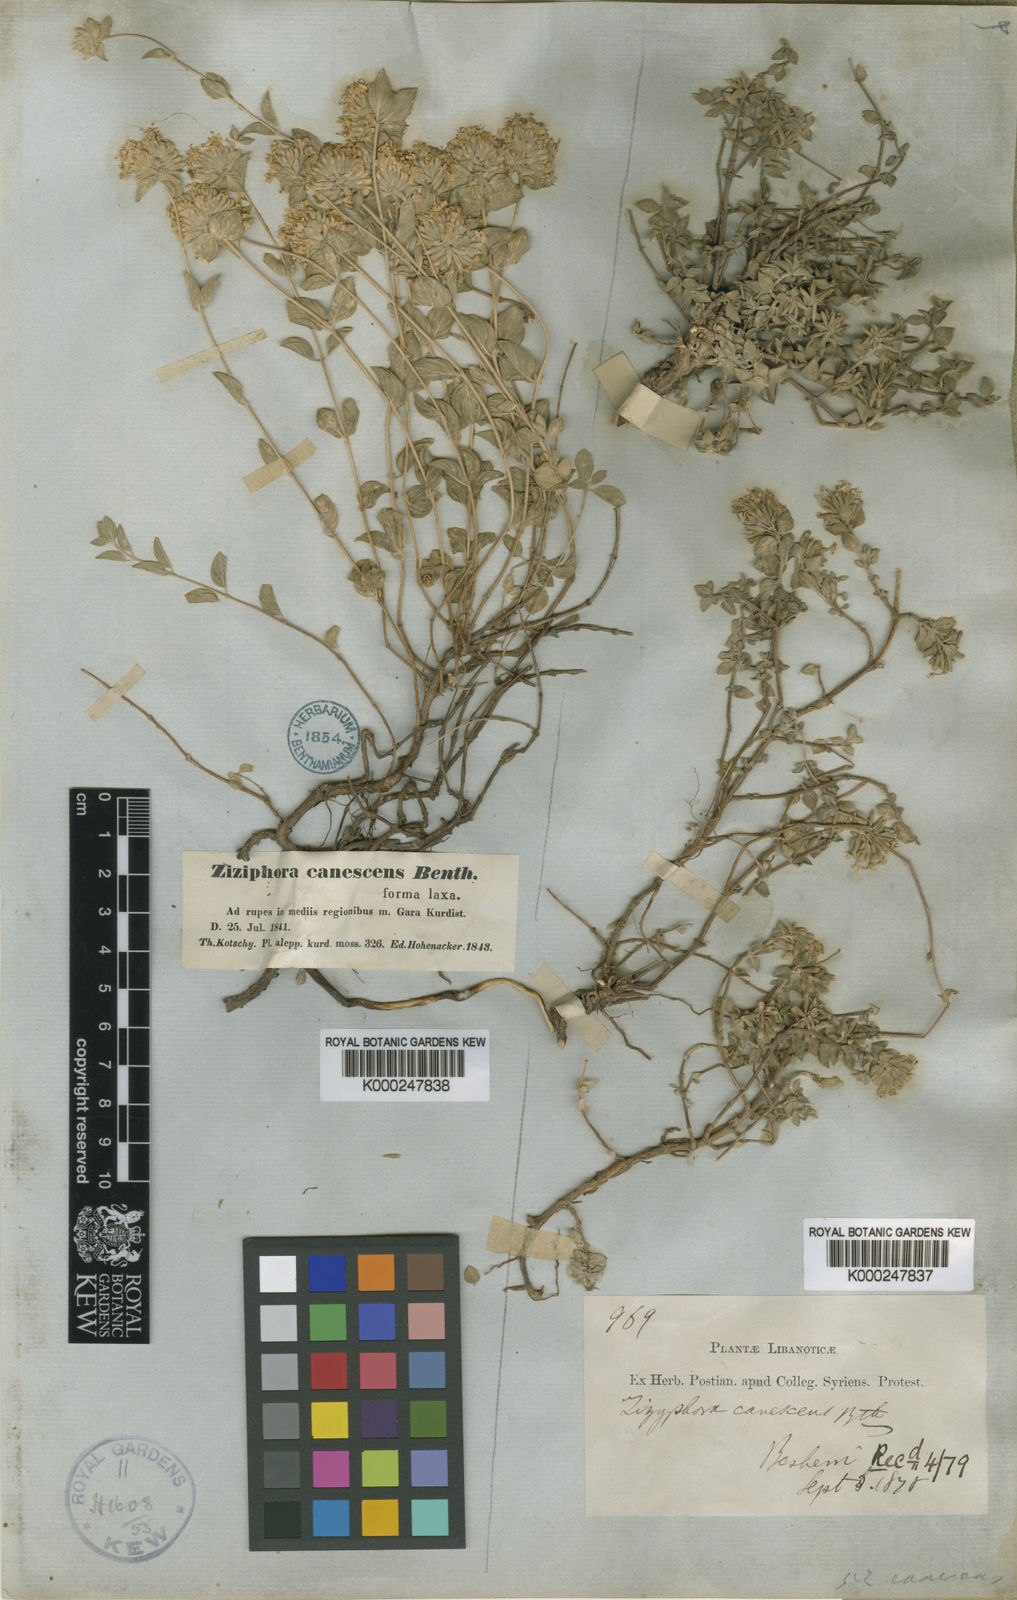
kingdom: Plantae
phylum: Tracheophyta
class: Magnoliopsida
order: Lamiales
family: Lamiaceae
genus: Ziziphora
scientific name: Ziziphora clinopodioides
